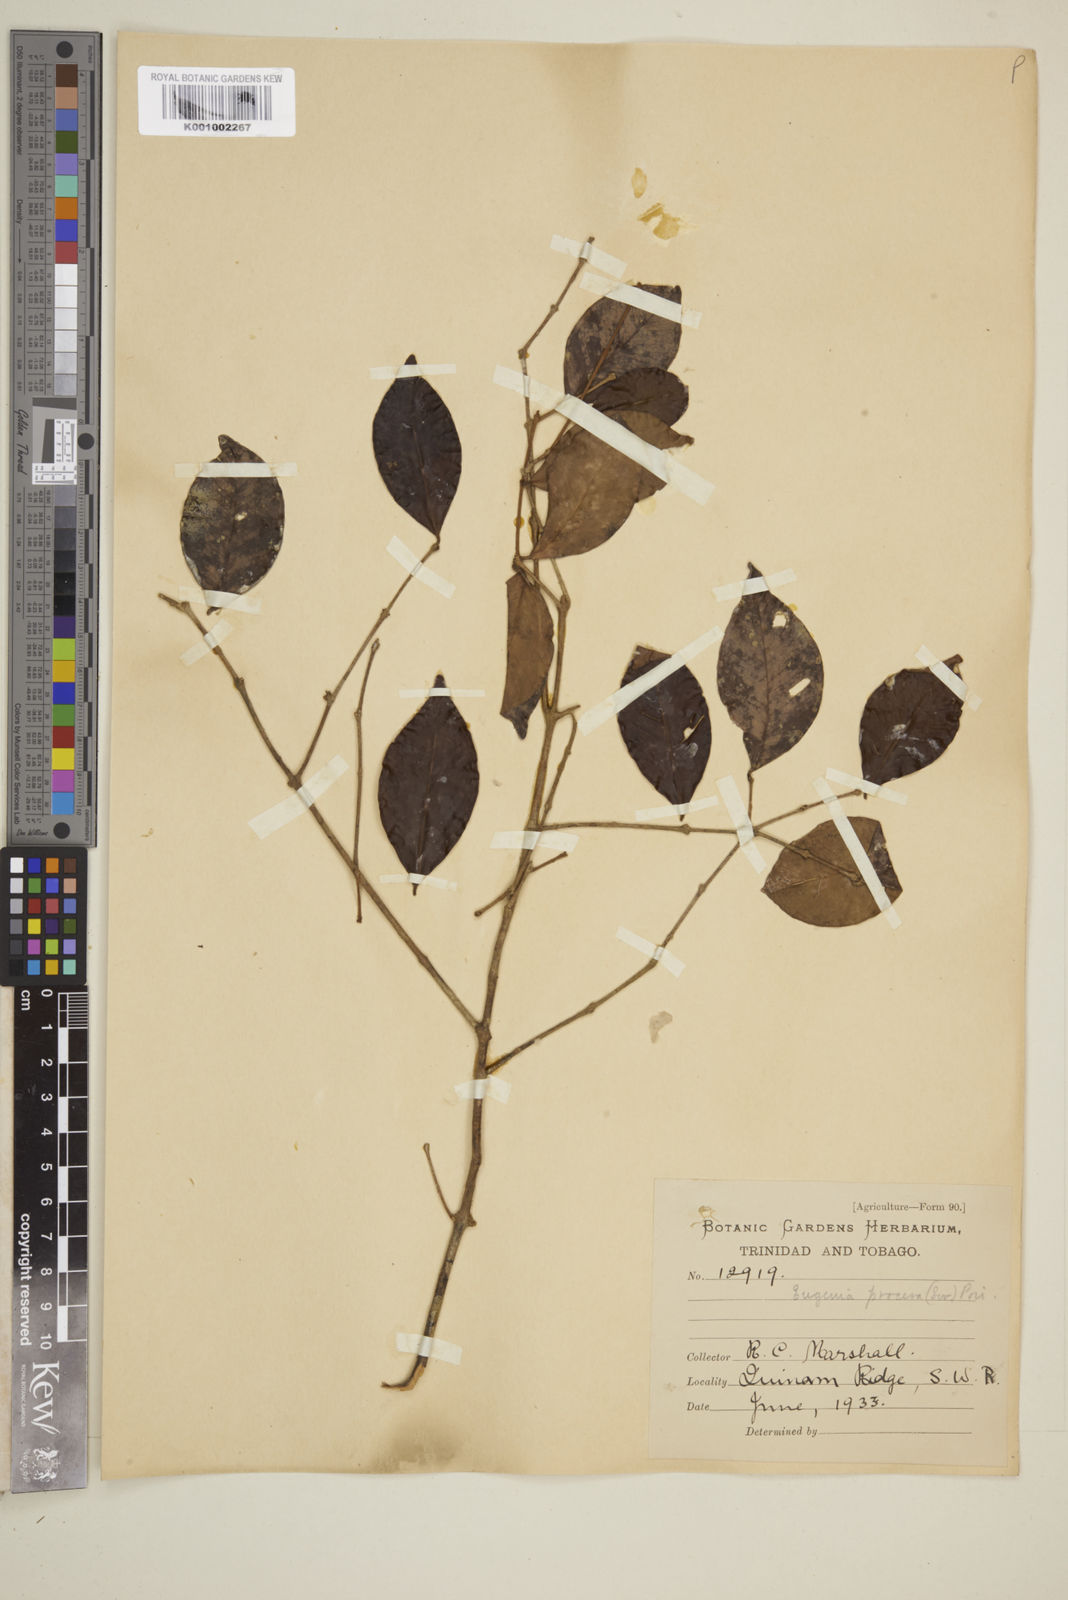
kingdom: Plantae
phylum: Tracheophyta
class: Magnoliopsida
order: Myrtales
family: Myrtaceae
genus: Eugenia
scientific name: Eugenia procera
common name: Bastard blackberry
